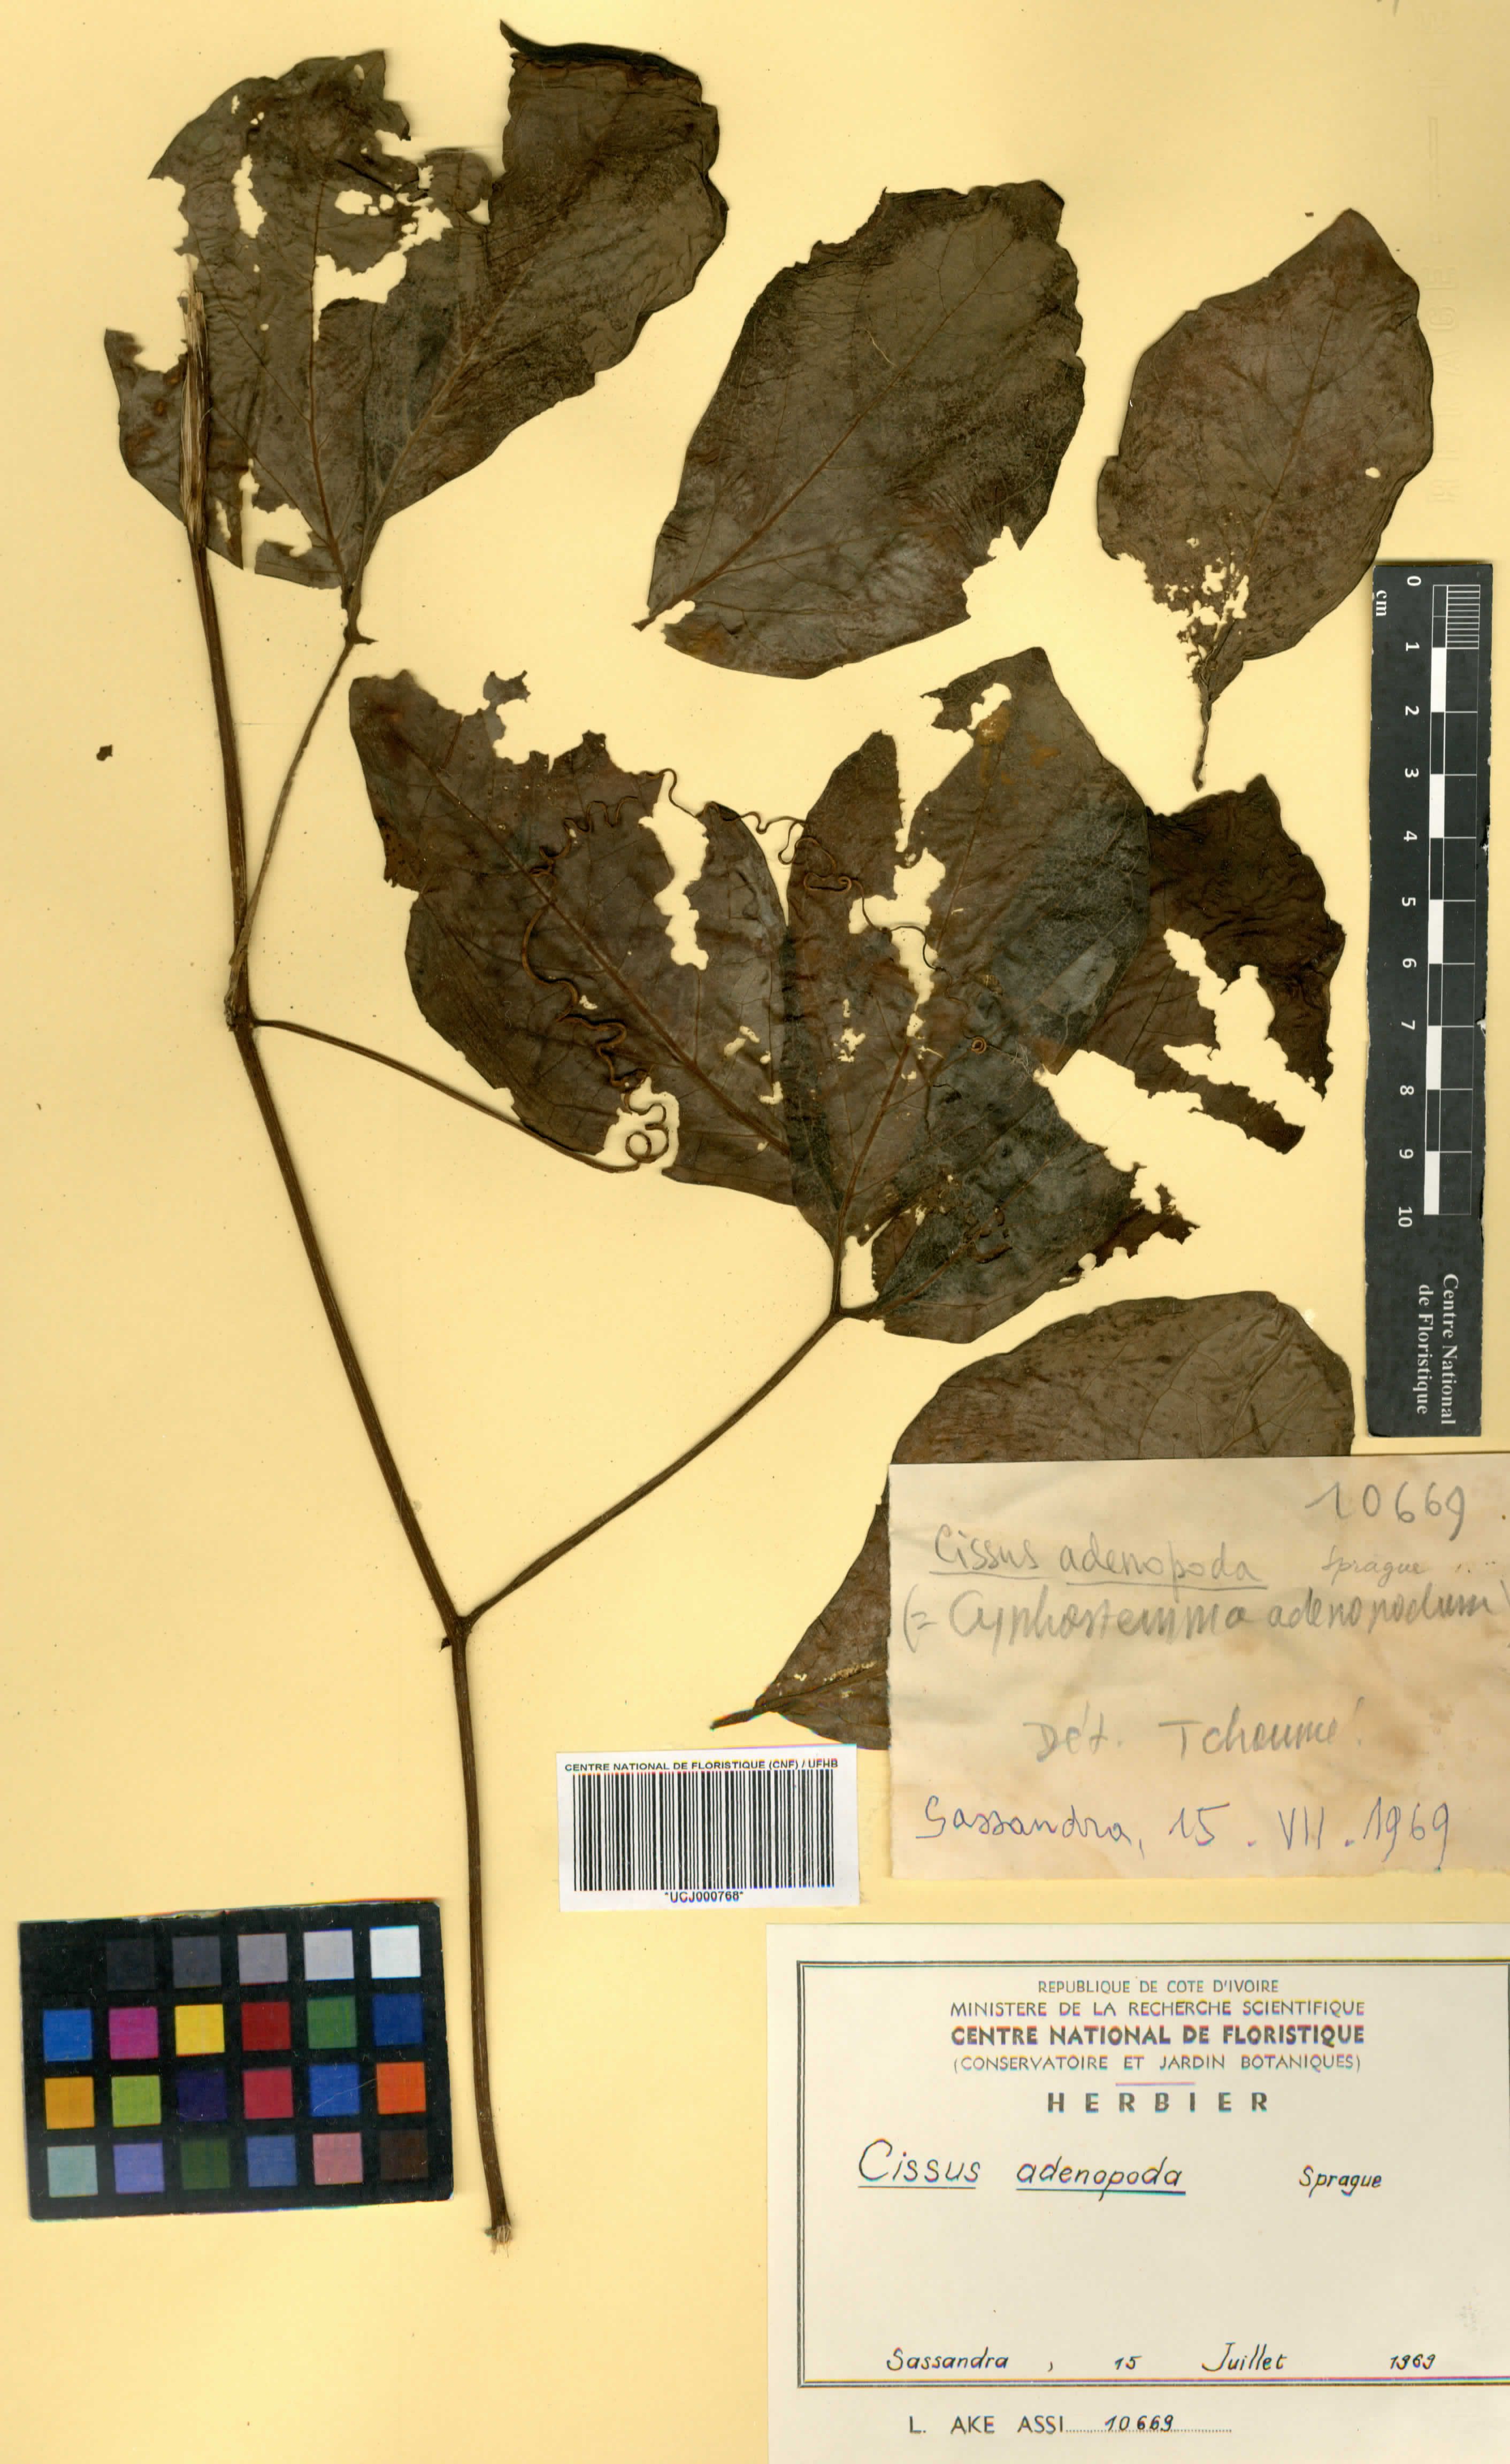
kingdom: Plantae
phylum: Tracheophyta
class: Magnoliopsida
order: Vitales
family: Vitaceae
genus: Cyphostemma
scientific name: Cyphostemma adenopodum
